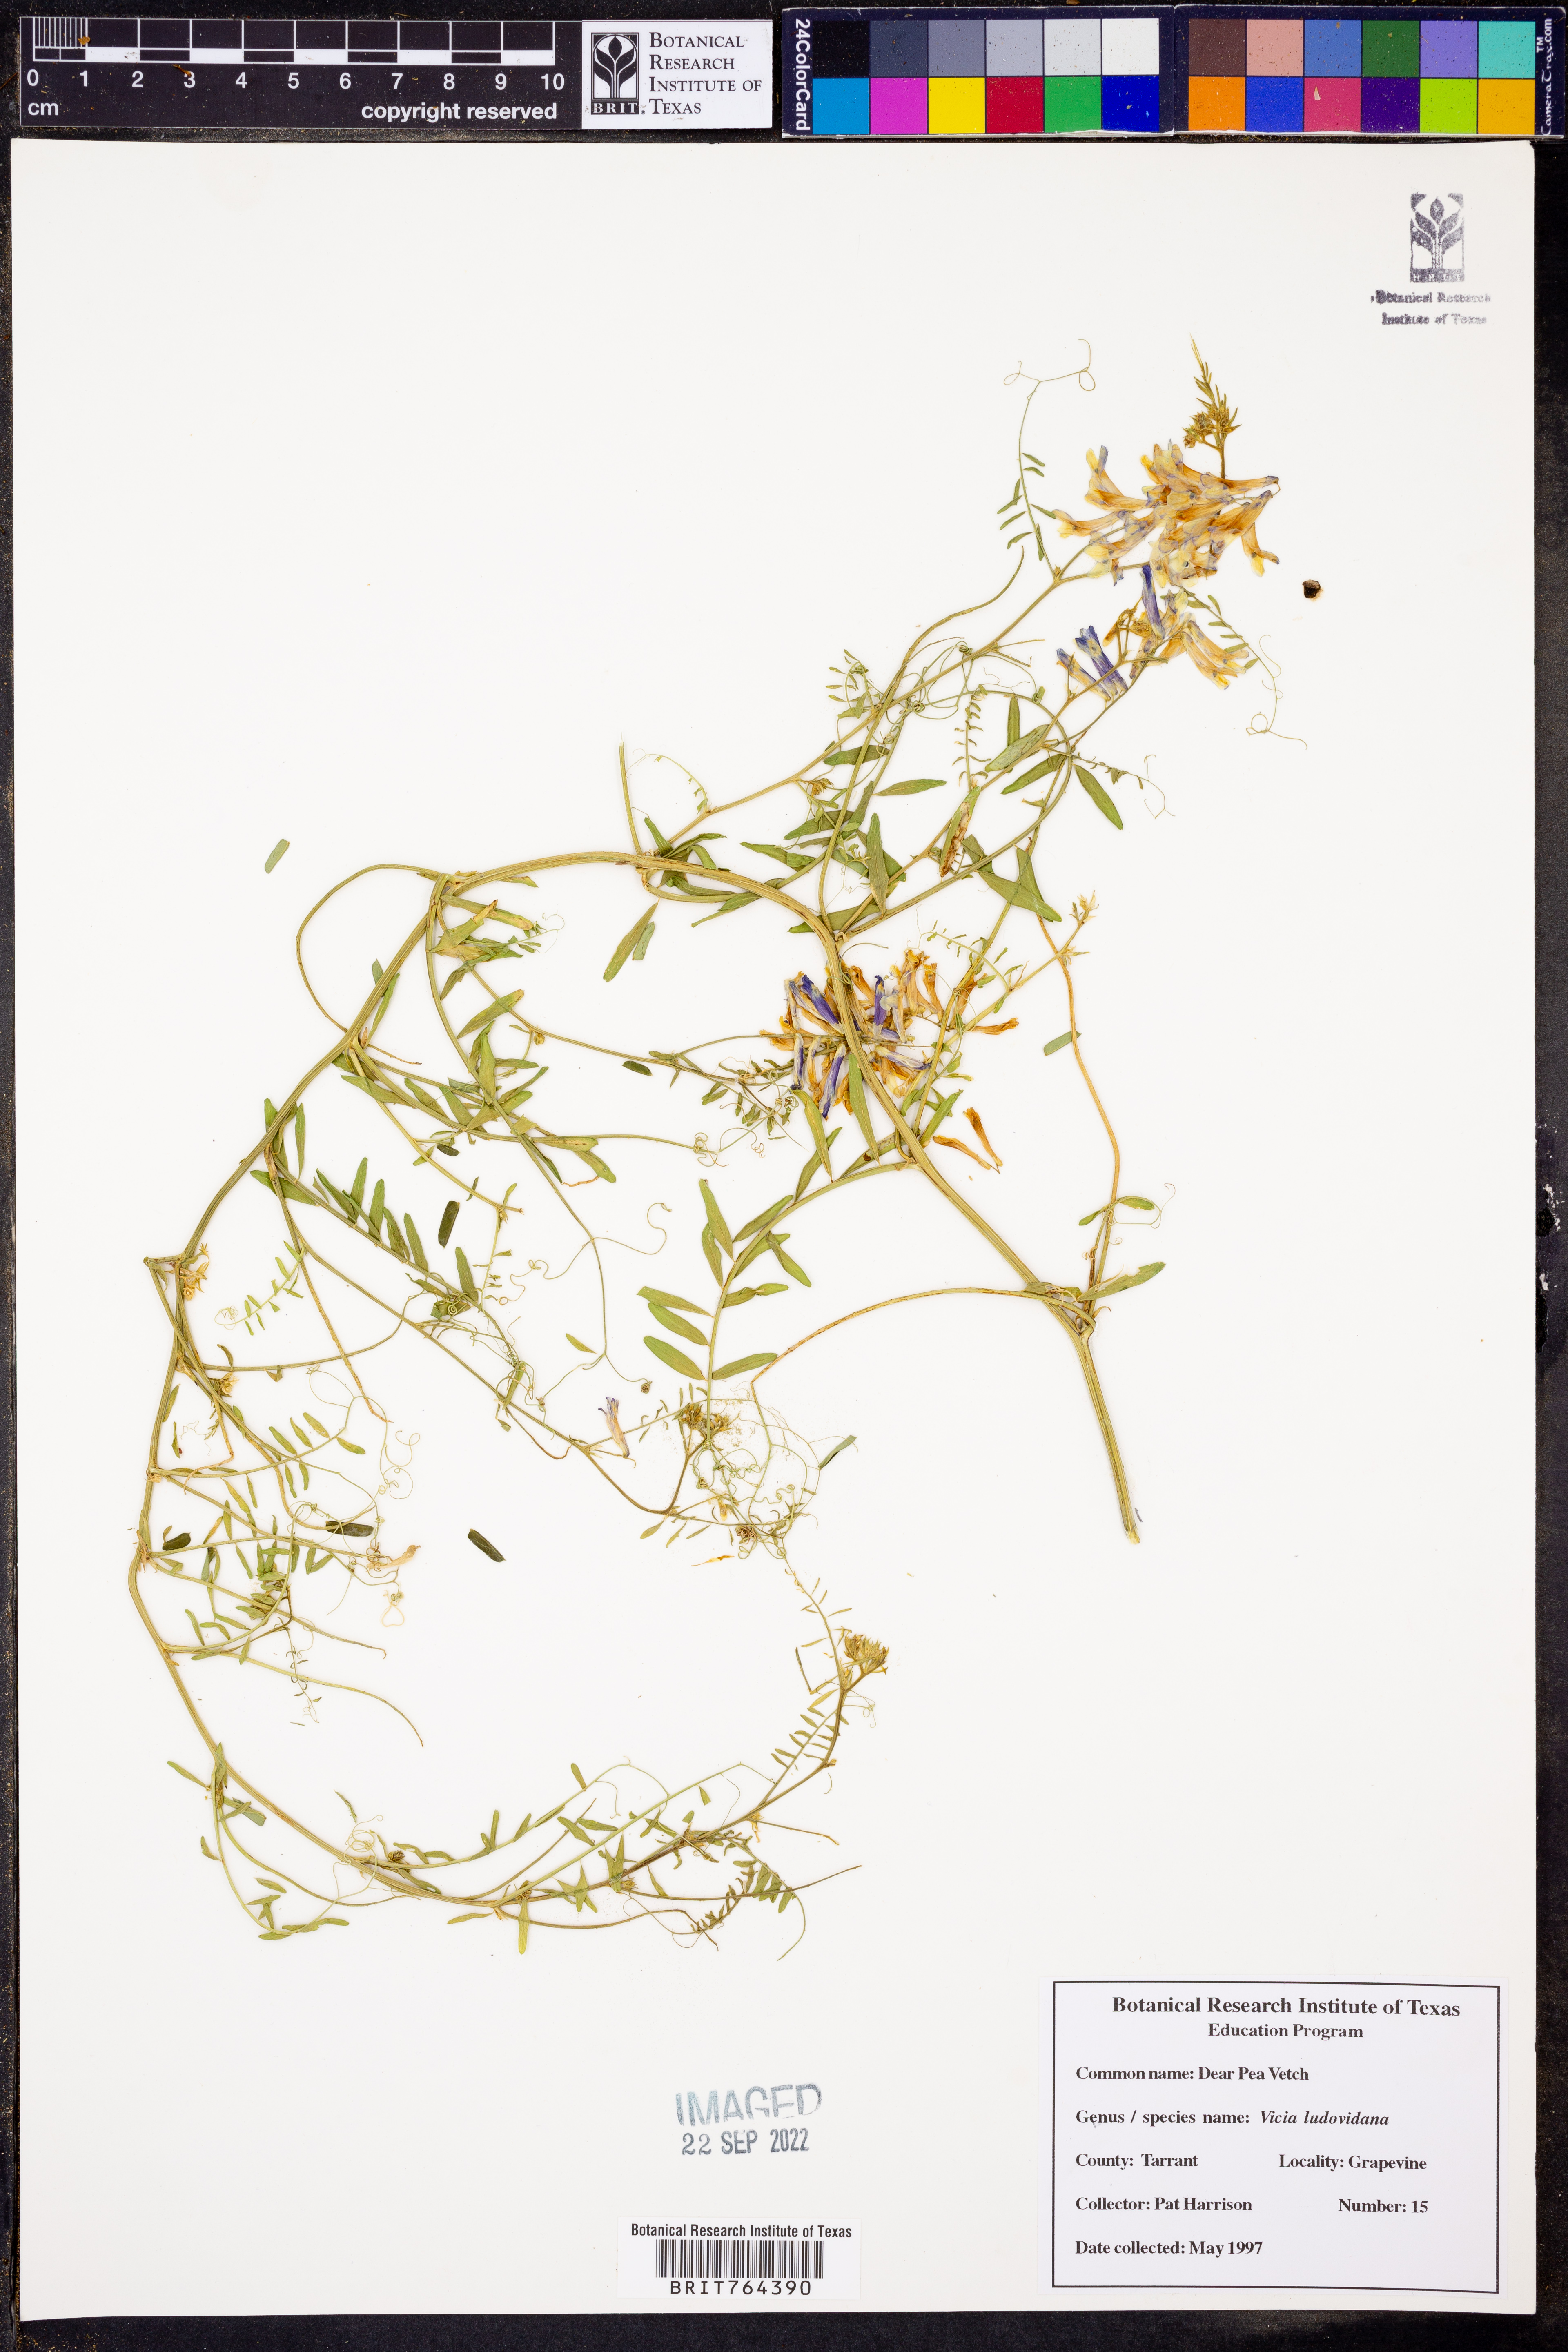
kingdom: Plantae
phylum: Tracheophyta
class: Magnoliopsida
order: Fabales
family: Fabaceae
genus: Vicia
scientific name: Vicia ludoviciana
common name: Louisiana vetch
